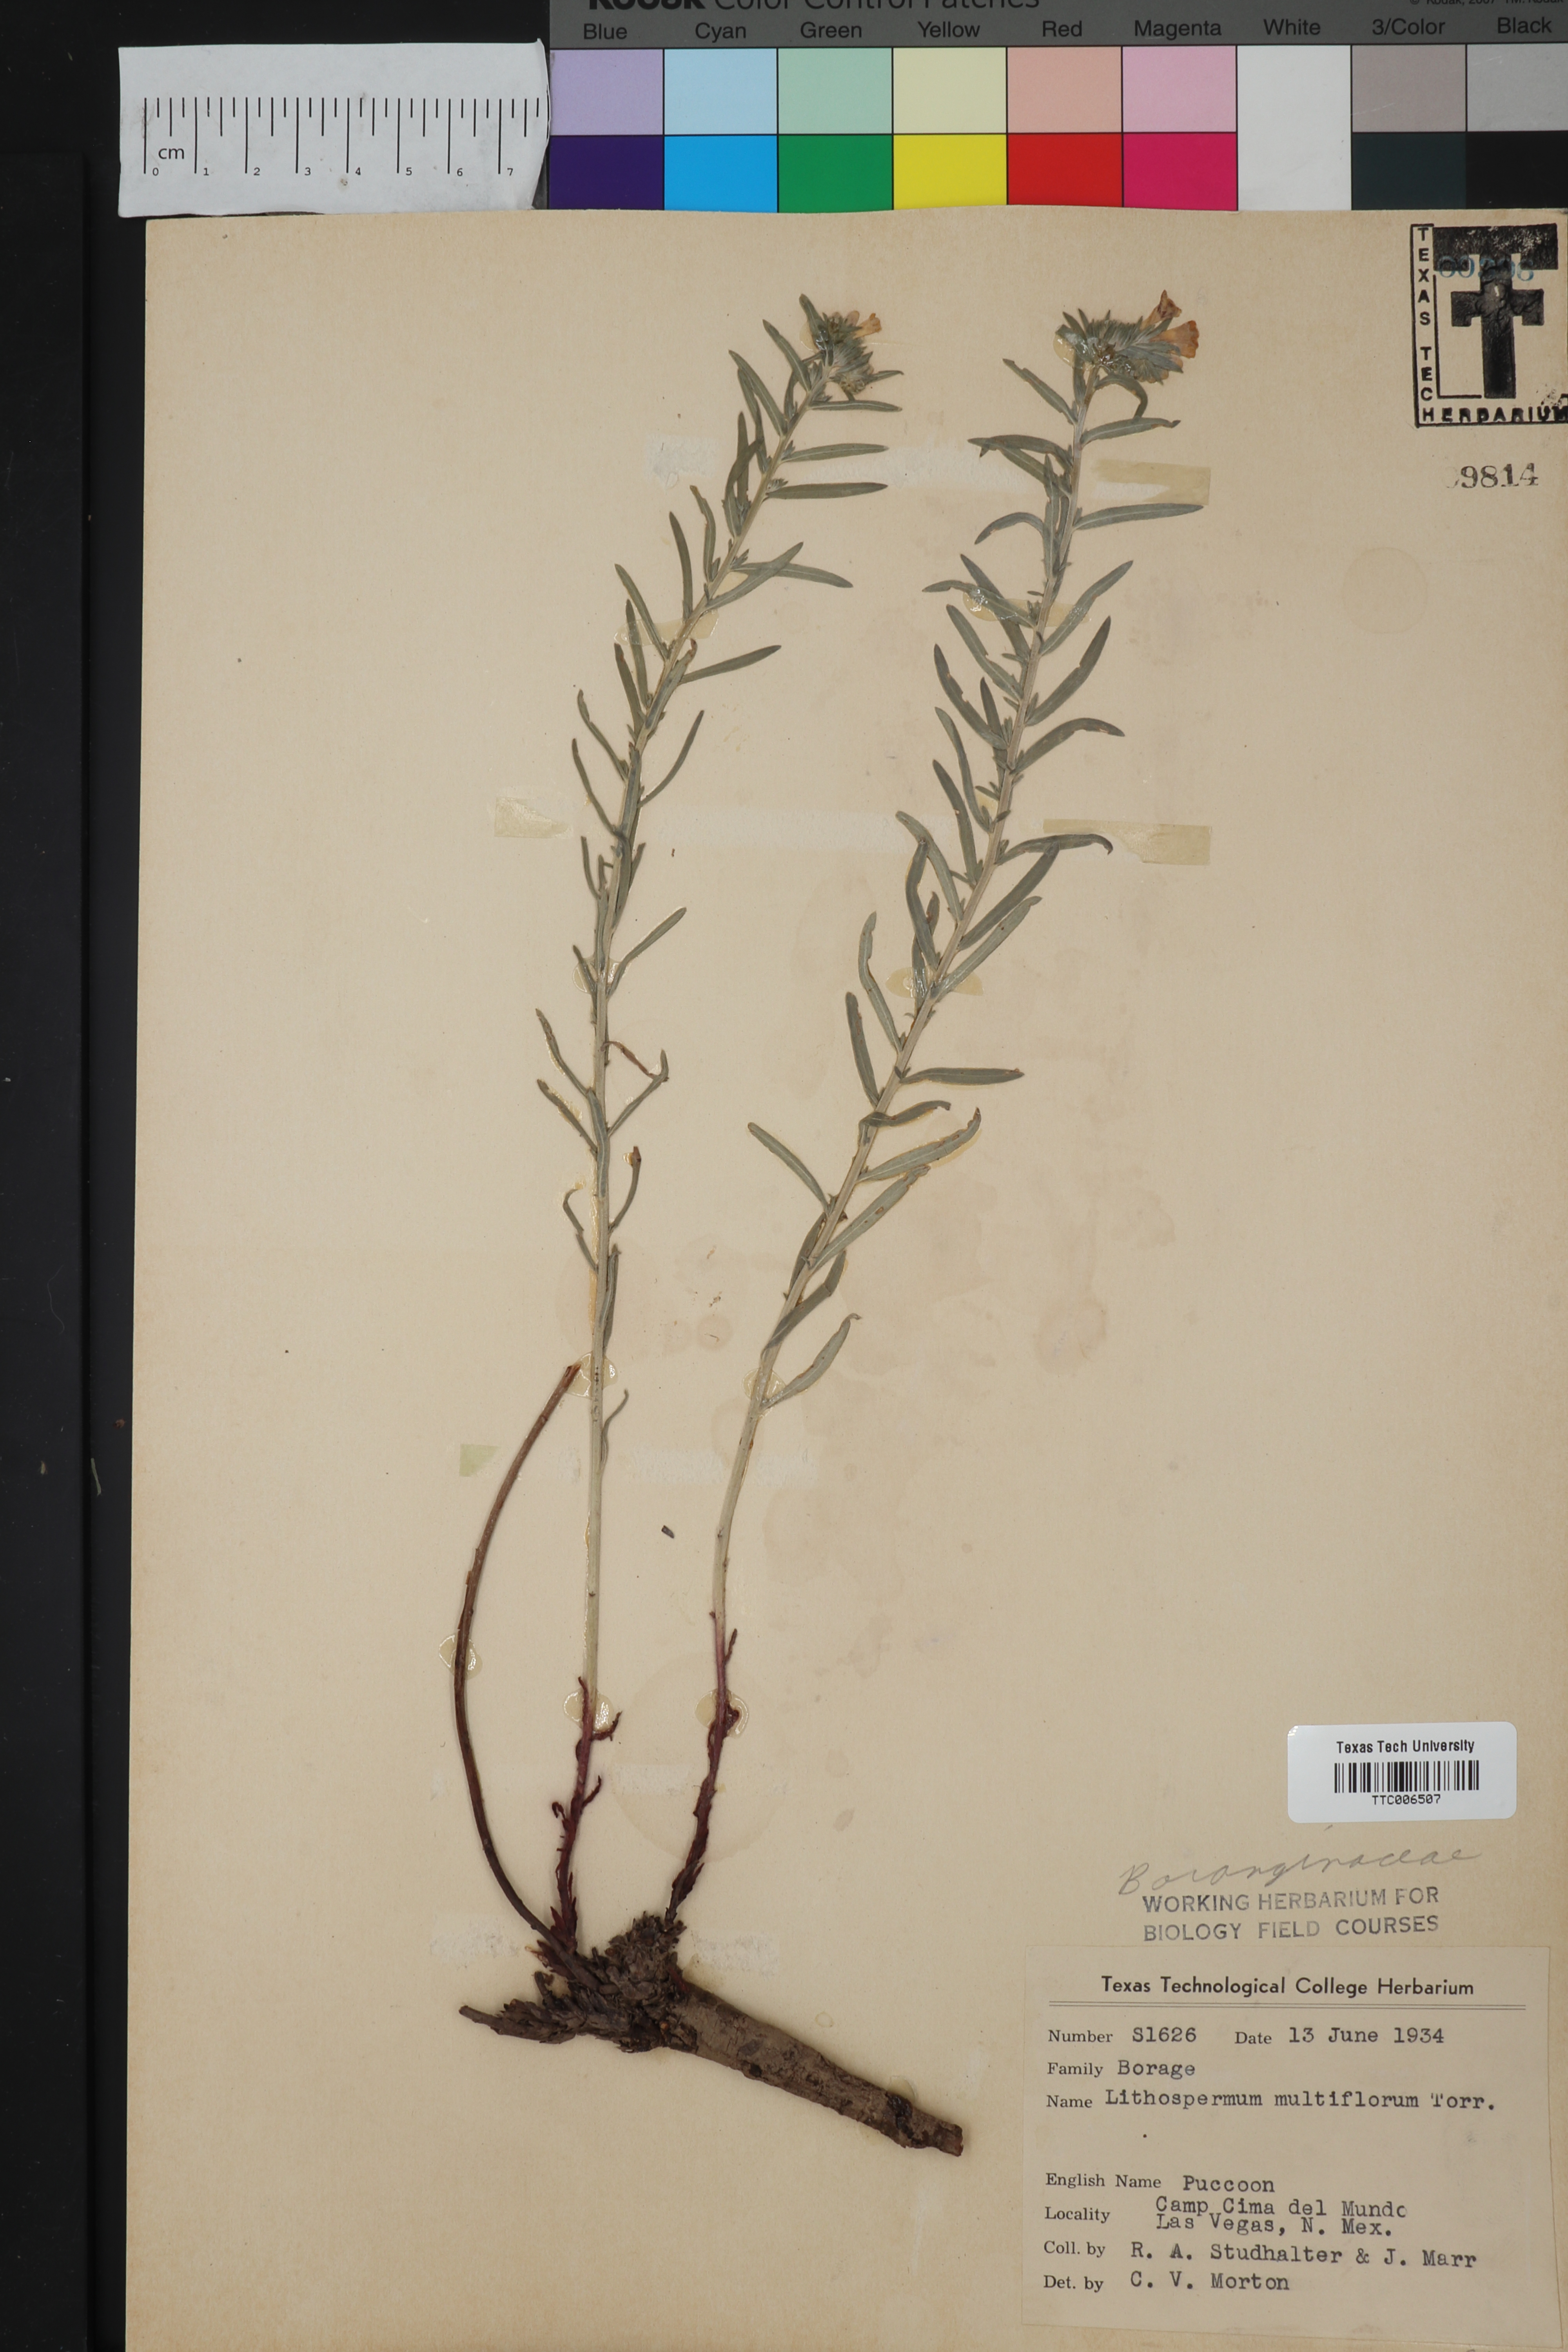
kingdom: Plantae
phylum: Tracheophyta
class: Magnoliopsida
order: Boraginales
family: Boraginaceae
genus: Lithospermum
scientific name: Lithospermum multiflorum
